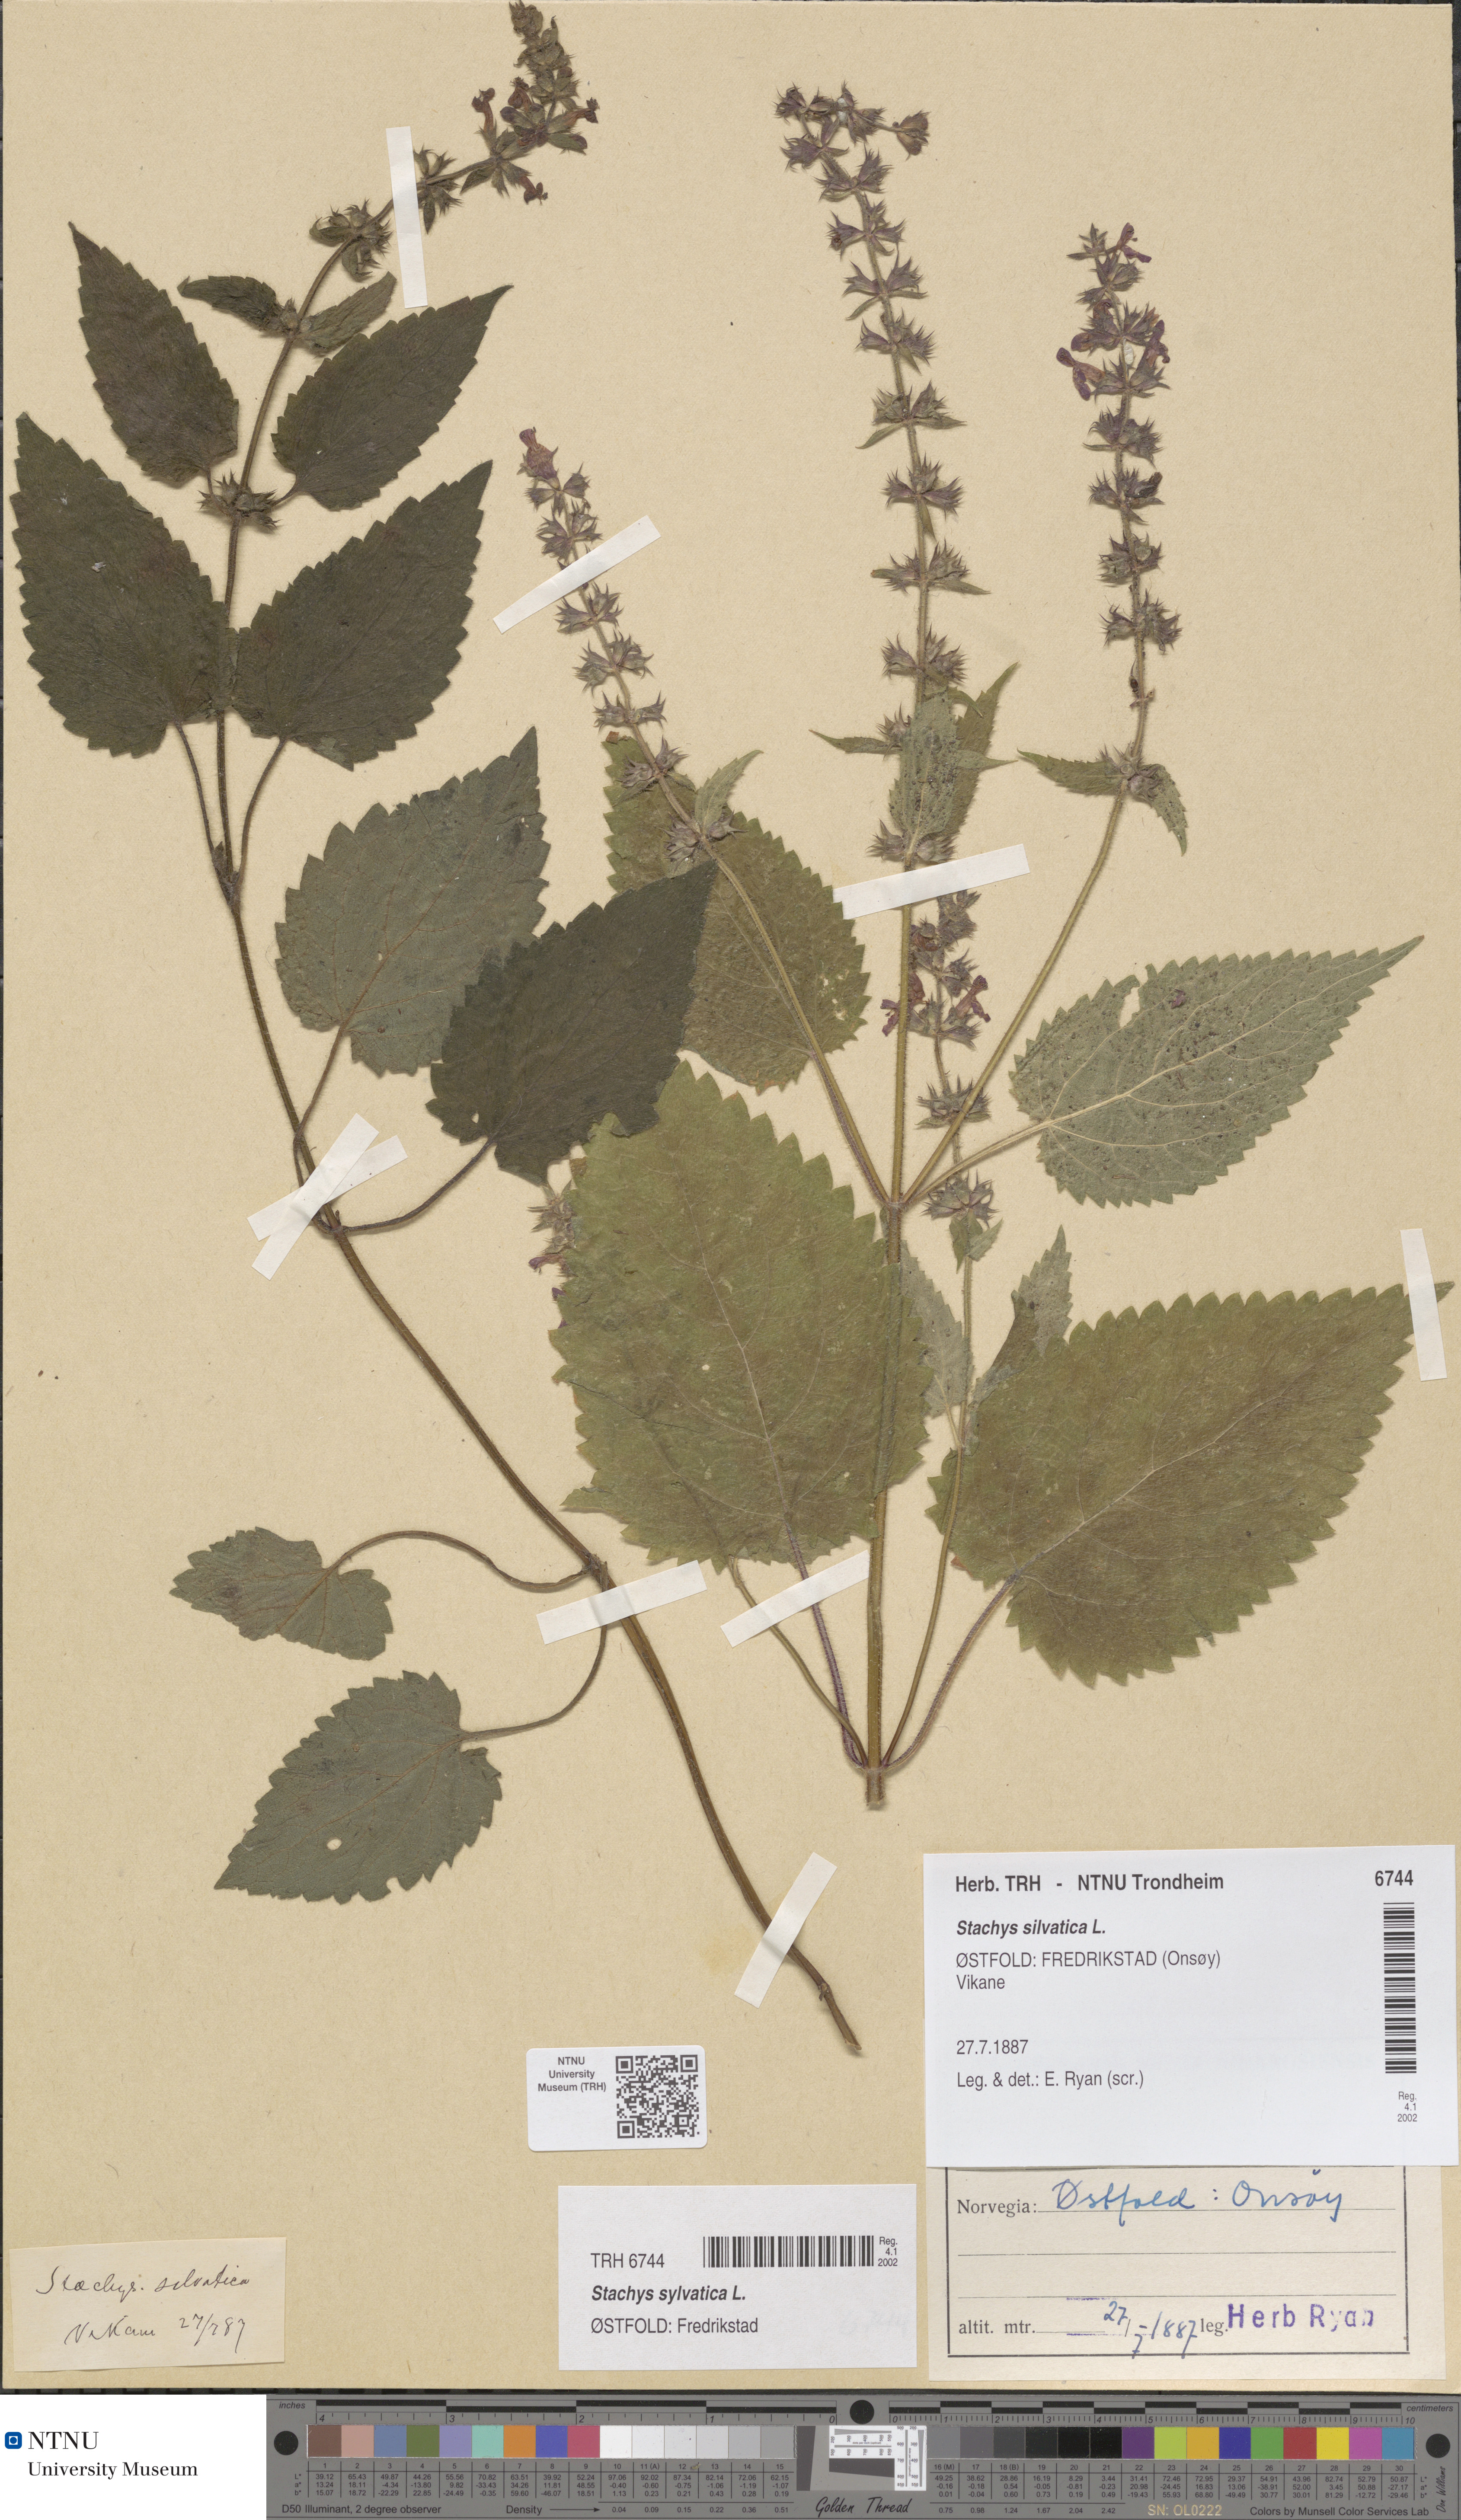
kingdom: Plantae
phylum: Tracheophyta
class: Magnoliopsida
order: Lamiales
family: Lamiaceae
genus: Stachys
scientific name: Stachys sylvatica
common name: Hedge woundwort
